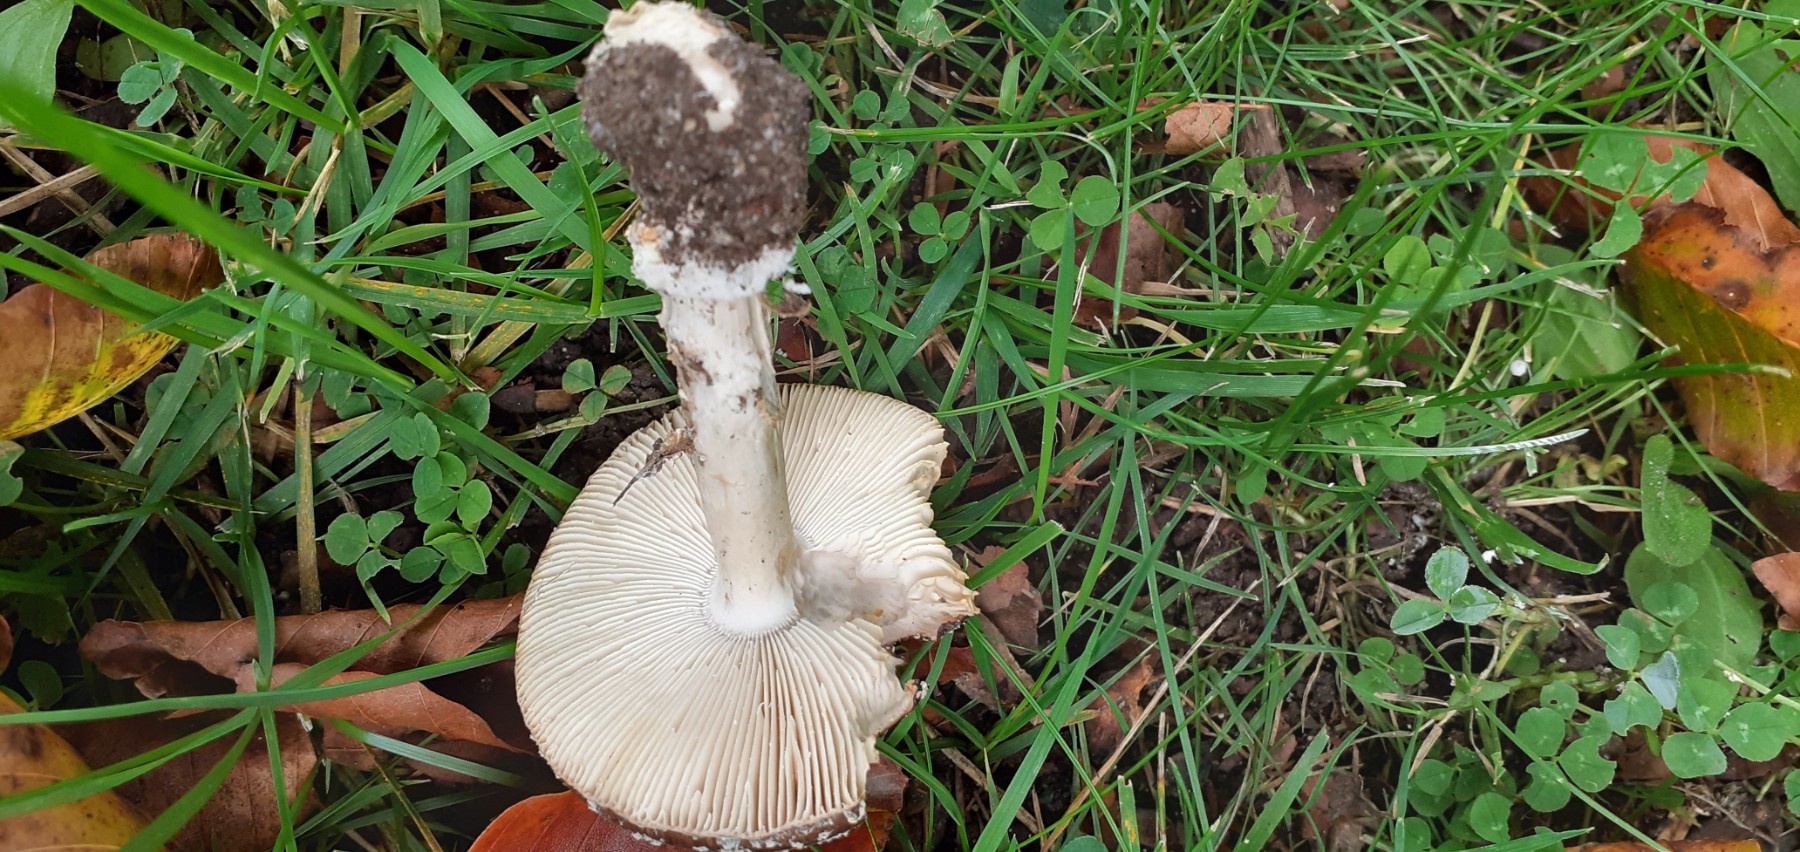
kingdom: Fungi
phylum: Basidiomycota
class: Agaricomycetes
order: Agaricales
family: Amanitaceae
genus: Amanita
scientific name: Amanita pantherina
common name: panter-fluesvamp
